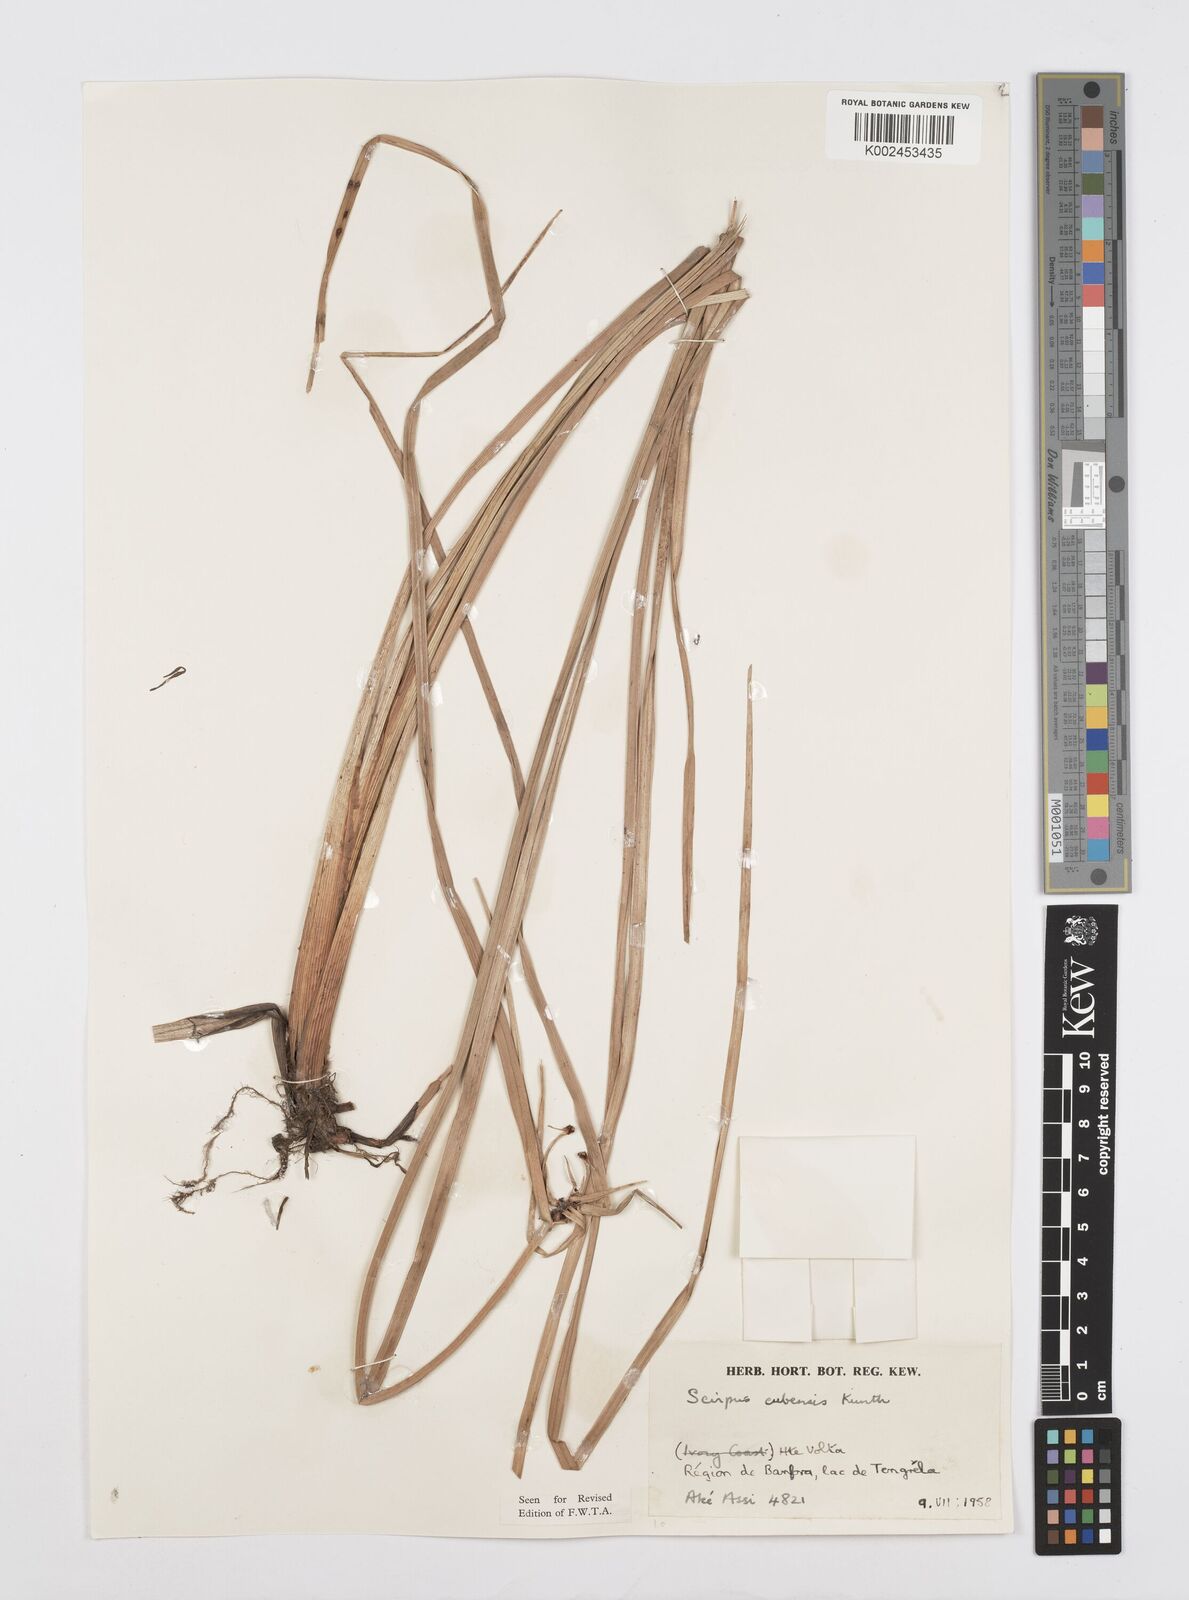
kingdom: Plantae
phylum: Tracheophyta
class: Liliopsida
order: Poales
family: Cyperaceae
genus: Cyperus
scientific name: Cyperus elegans
